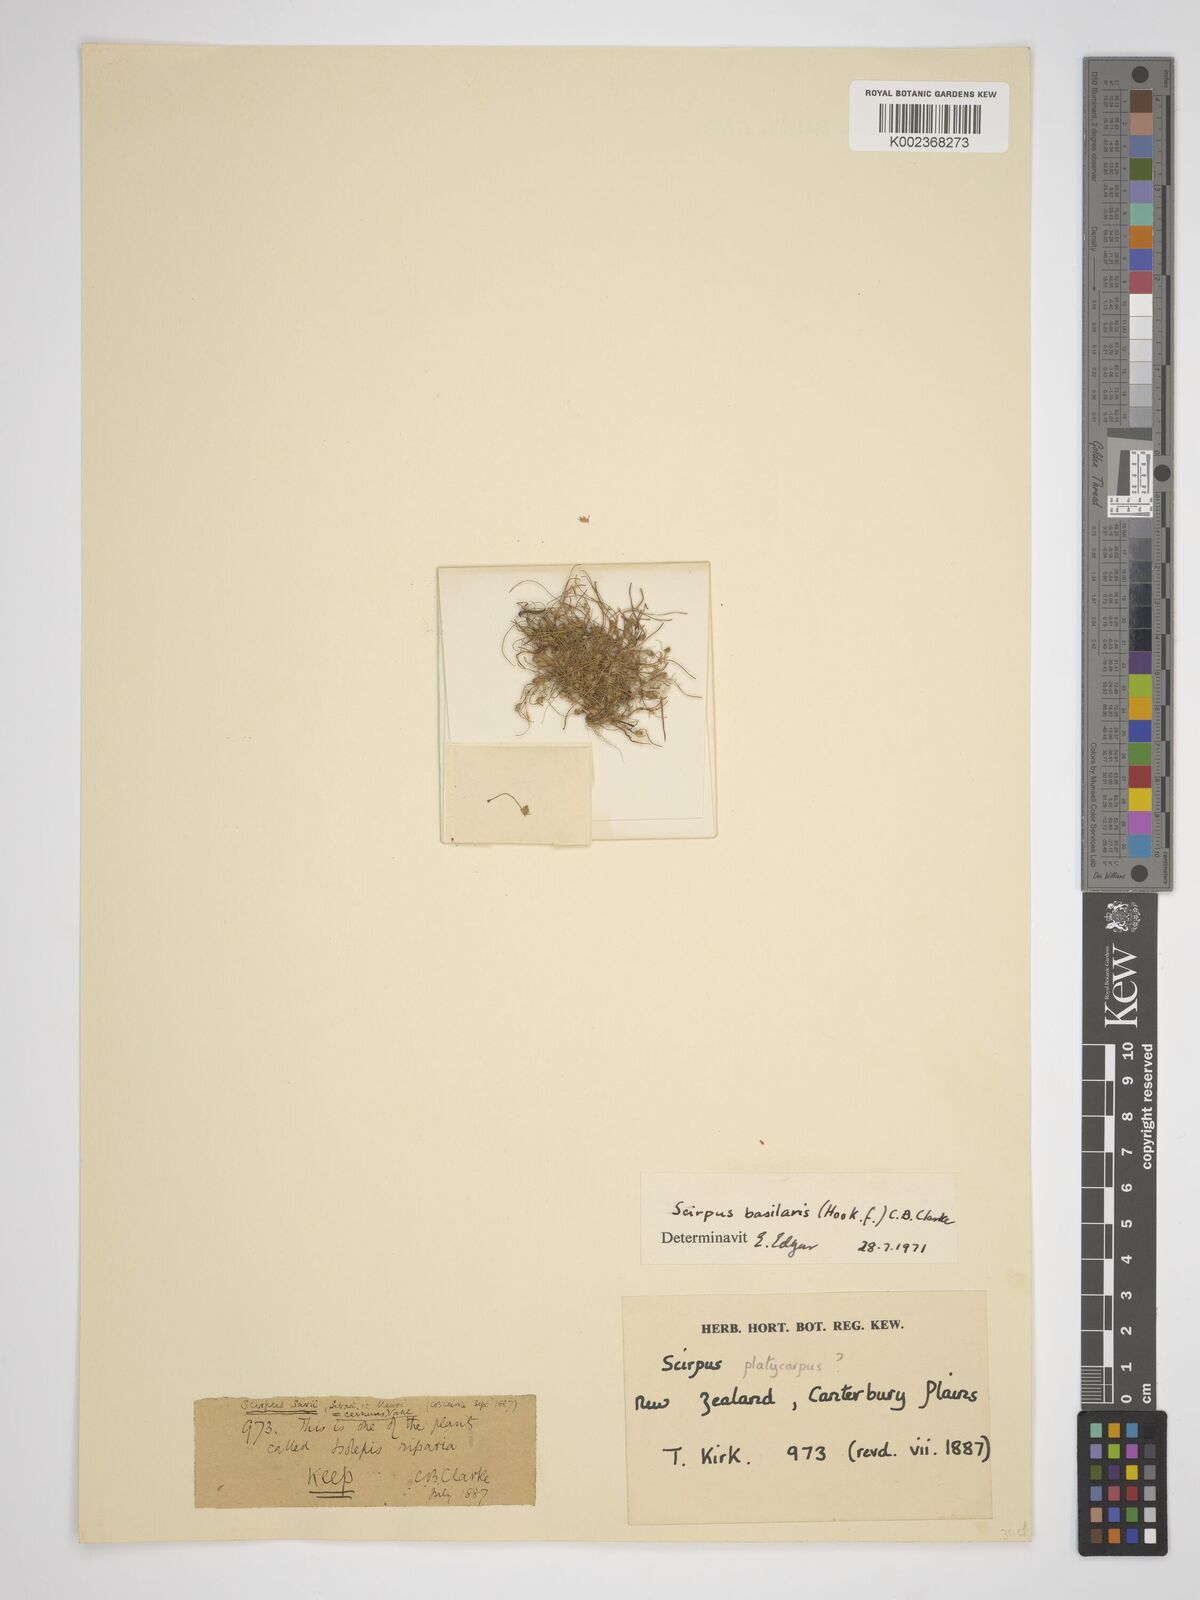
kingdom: Plantae
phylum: Tracheophyta
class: Liliopsida
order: Poales
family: Cyperaceae
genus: Isolepis
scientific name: Isolepis basilaris
